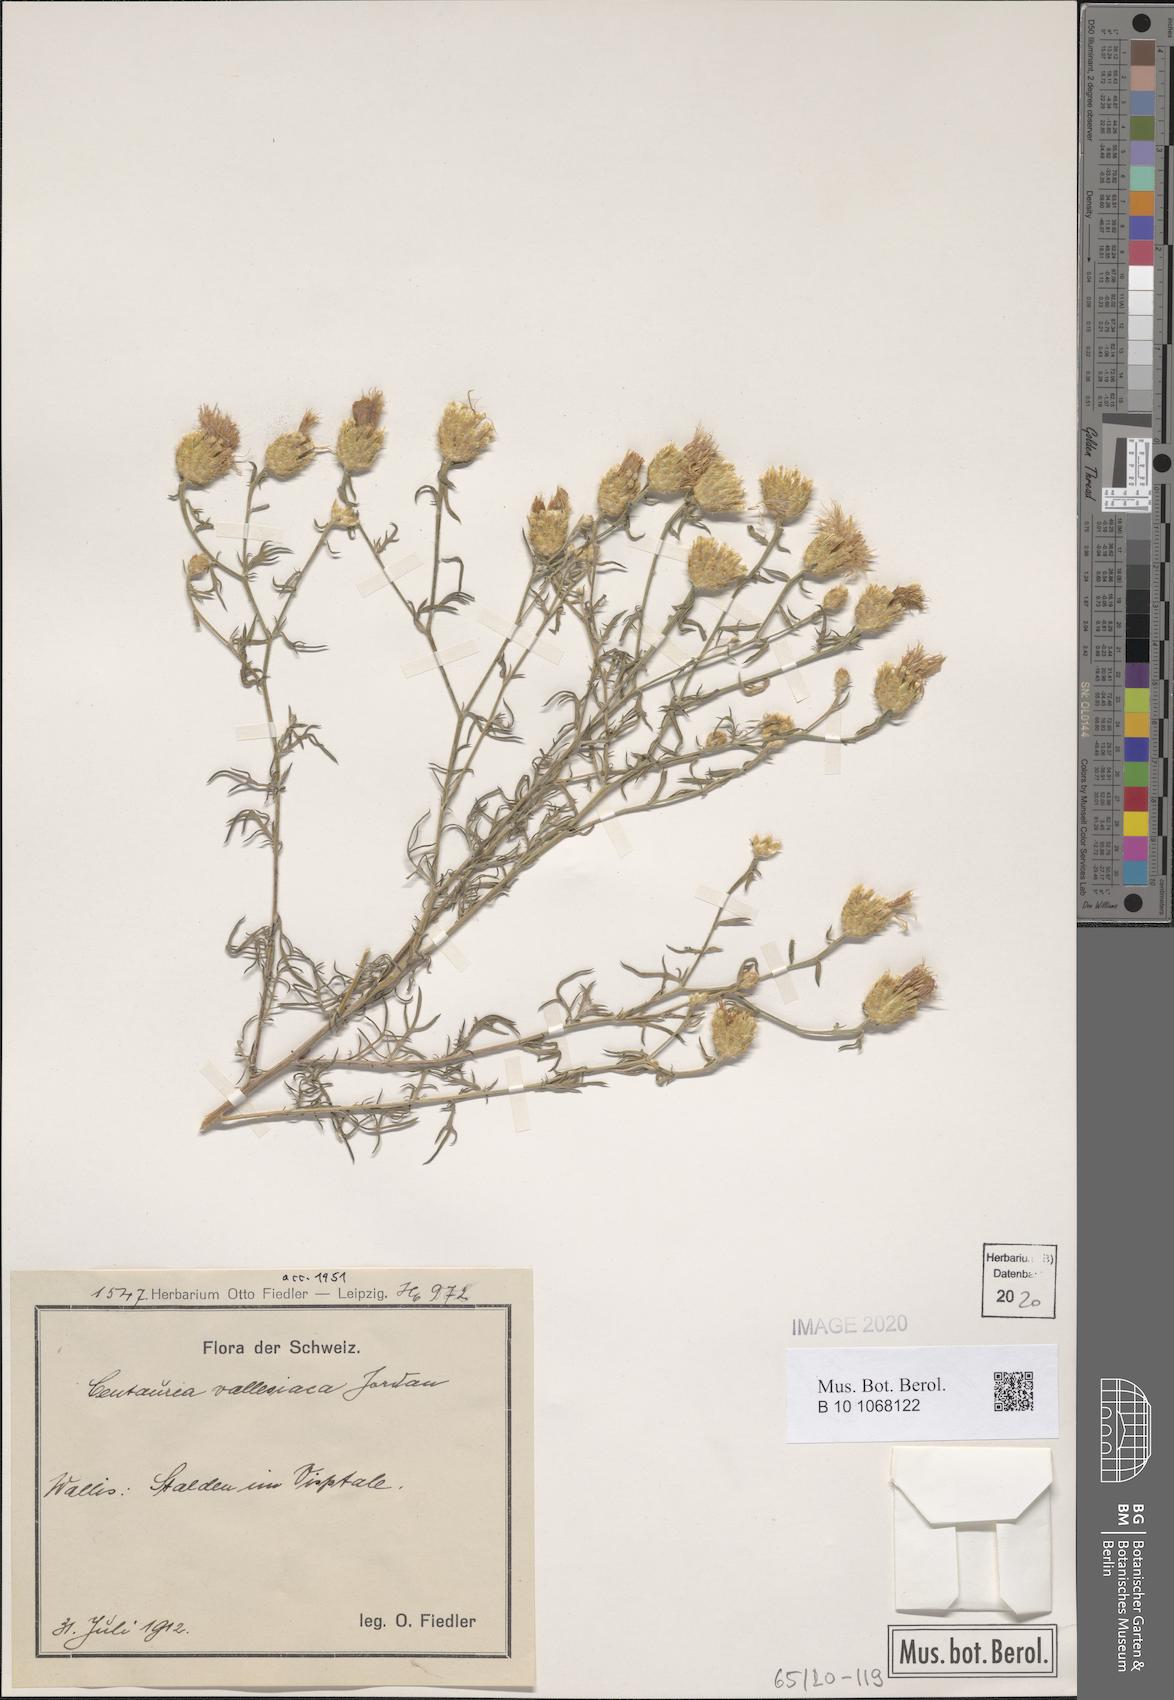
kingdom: Plantae
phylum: Tracheophyta
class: Magnoliopsida
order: Asterales
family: Asteraceae
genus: Centaurea
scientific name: Centaurea valesiaca
